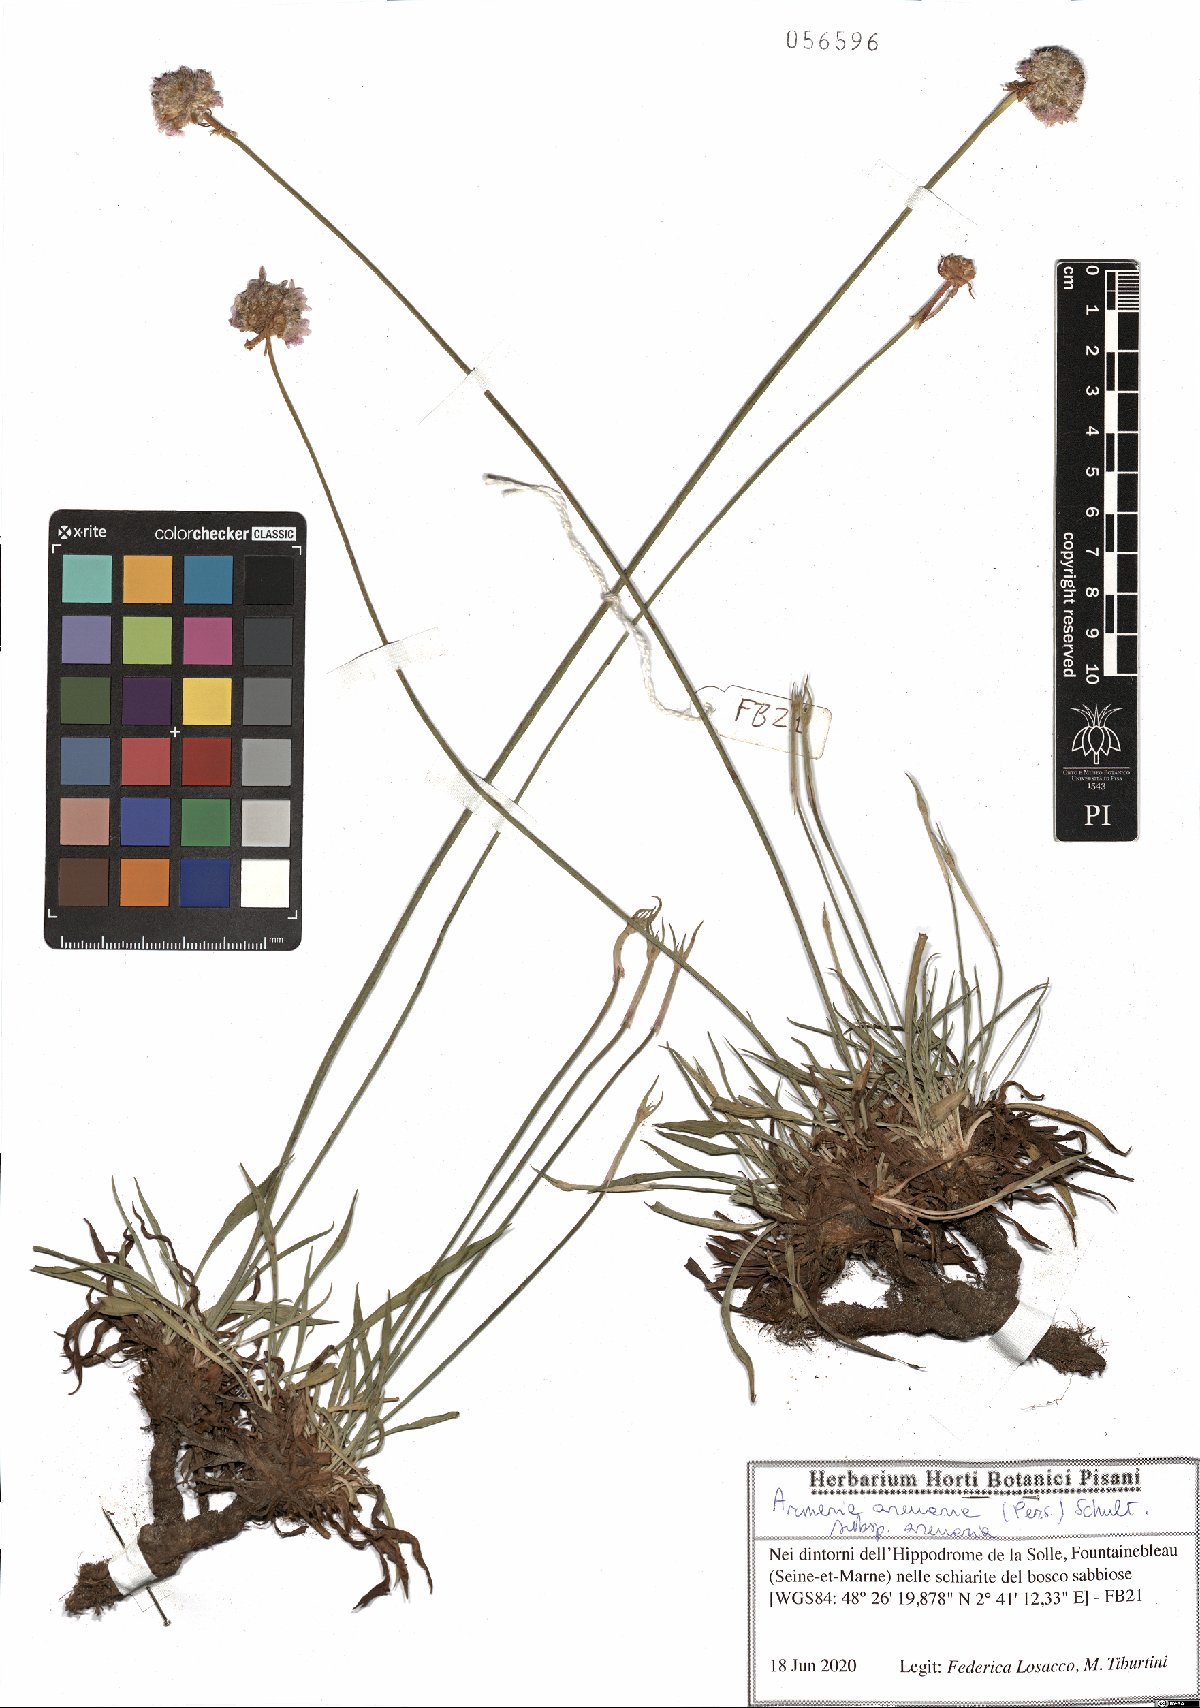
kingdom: Plantae
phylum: Tracheophyta
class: Magnoliopsida
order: Caryophyllales
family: Plumbaginaceae
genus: Armeria
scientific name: Armeria arenaria
